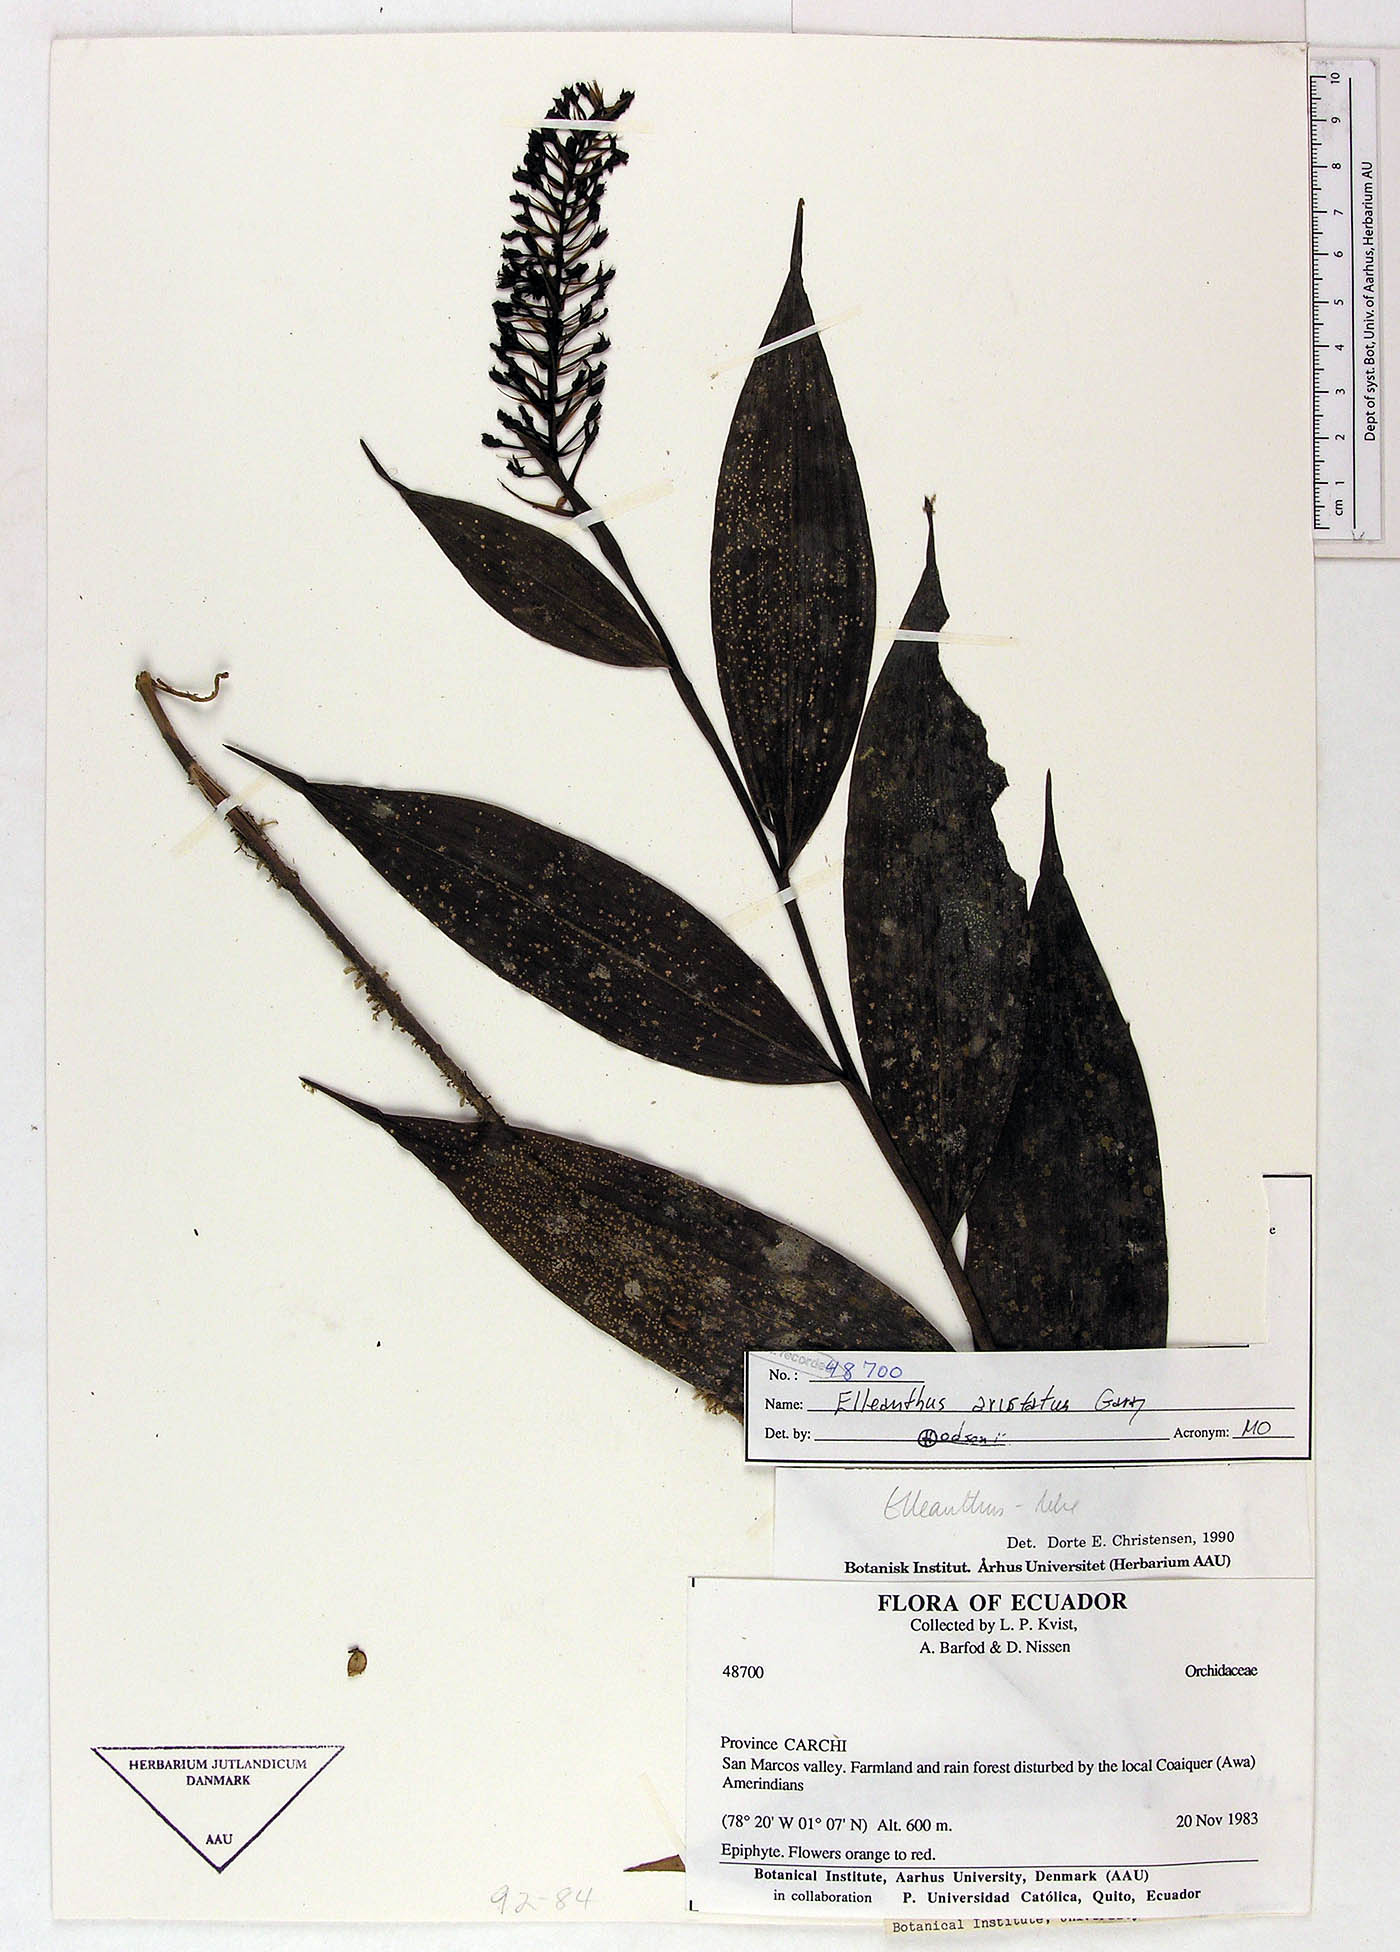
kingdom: Plantae
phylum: Tracheophyta
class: Liliopsida
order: Asparagales
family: Orchidaceae
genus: Elleanthus
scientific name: Elleanthus aristatus
